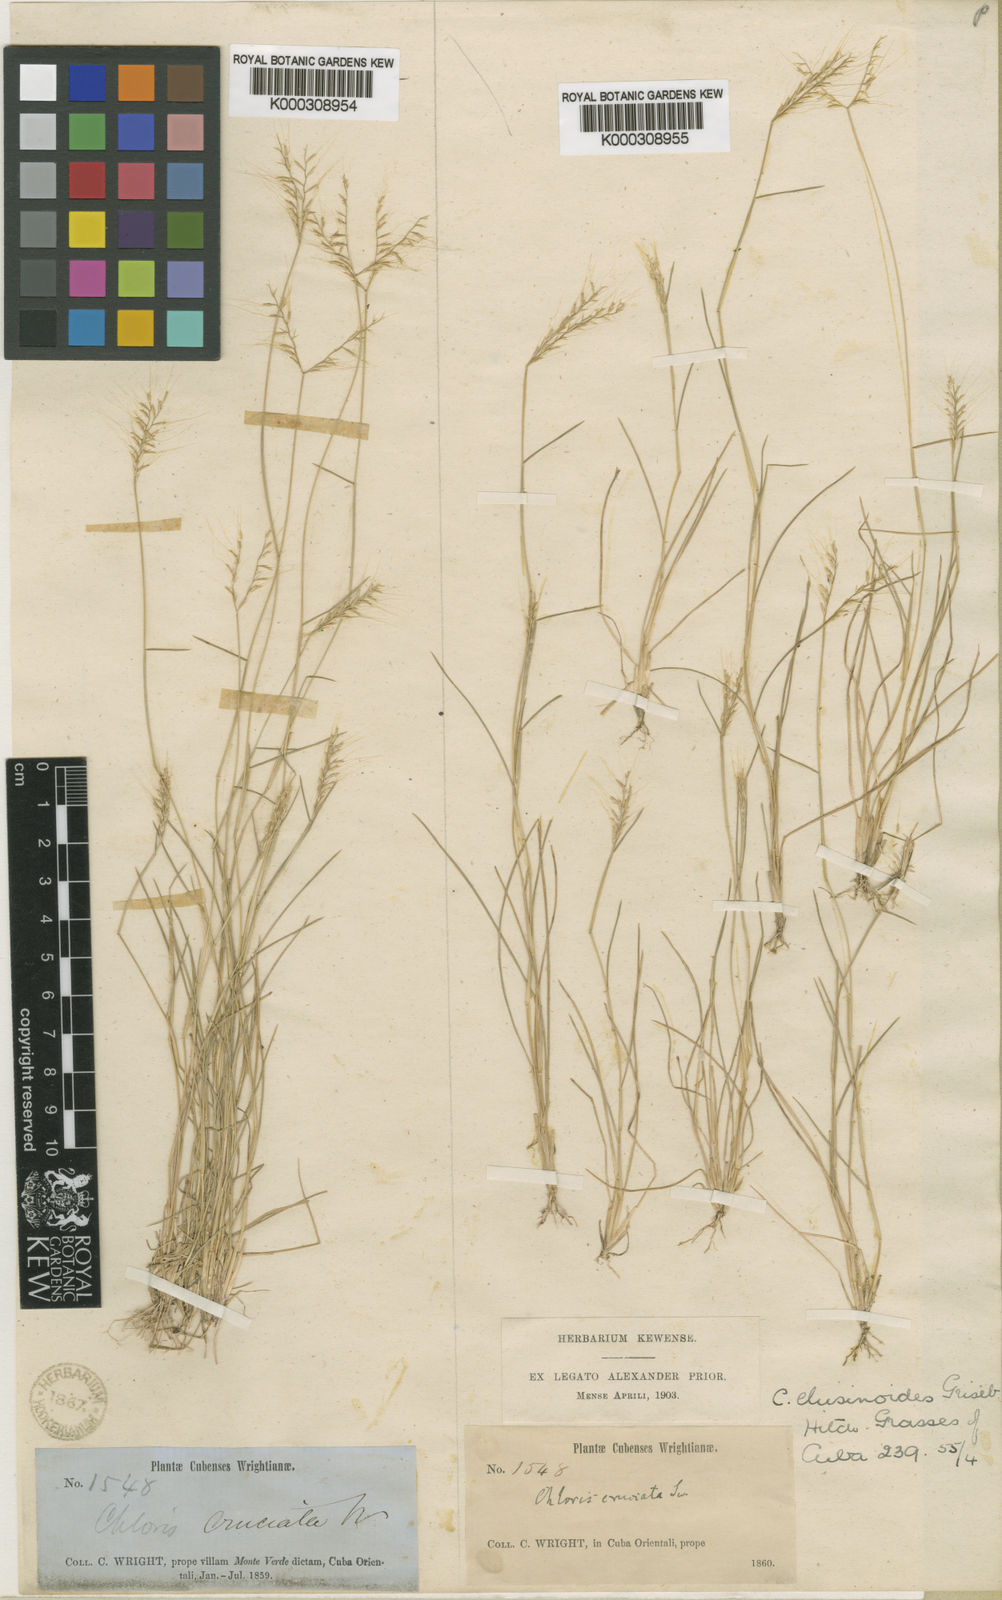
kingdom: Plantae
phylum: Tracheophyta
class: Liliopsida
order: Poales
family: Poaceae
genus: Chloris
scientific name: Chloris cruciata
